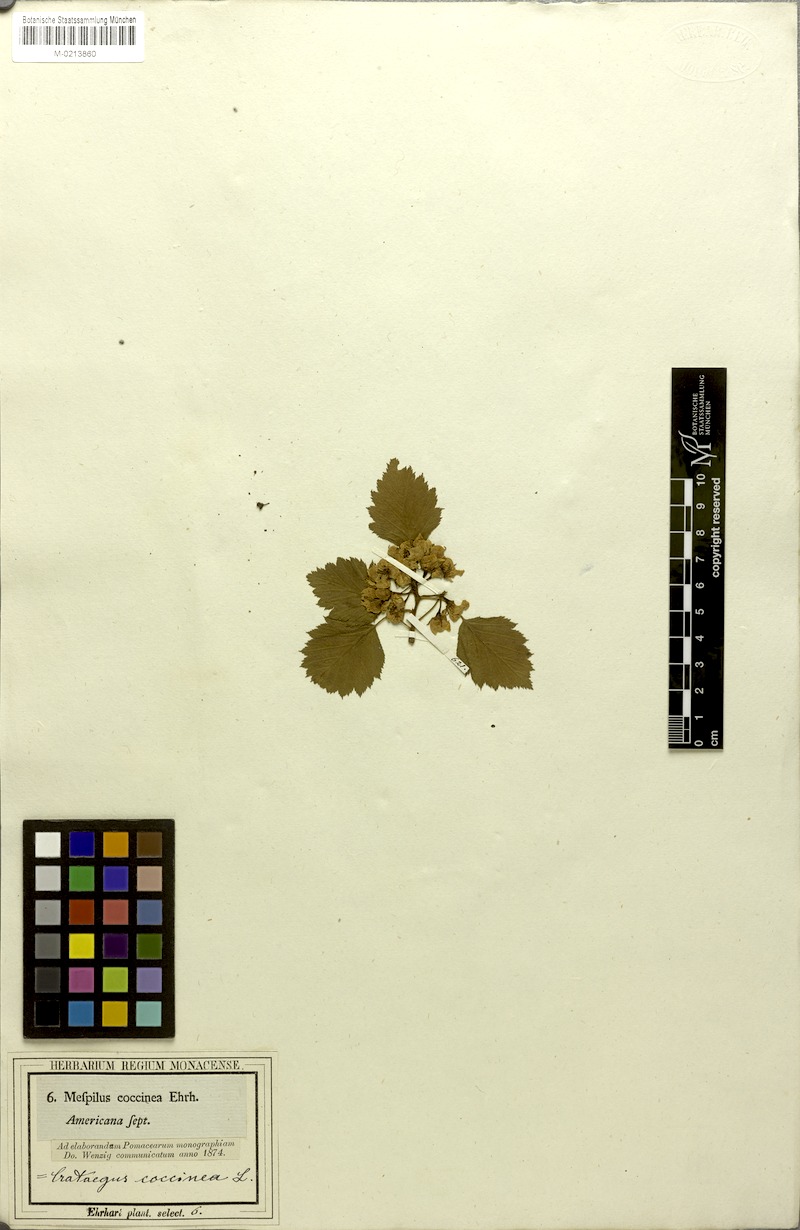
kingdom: Plantae
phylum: Tracheophyta
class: Magnoliopsida
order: Rosales
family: Rosaceae
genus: Crataegus
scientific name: Crataegus coccinea
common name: Scarlet hawthorn
